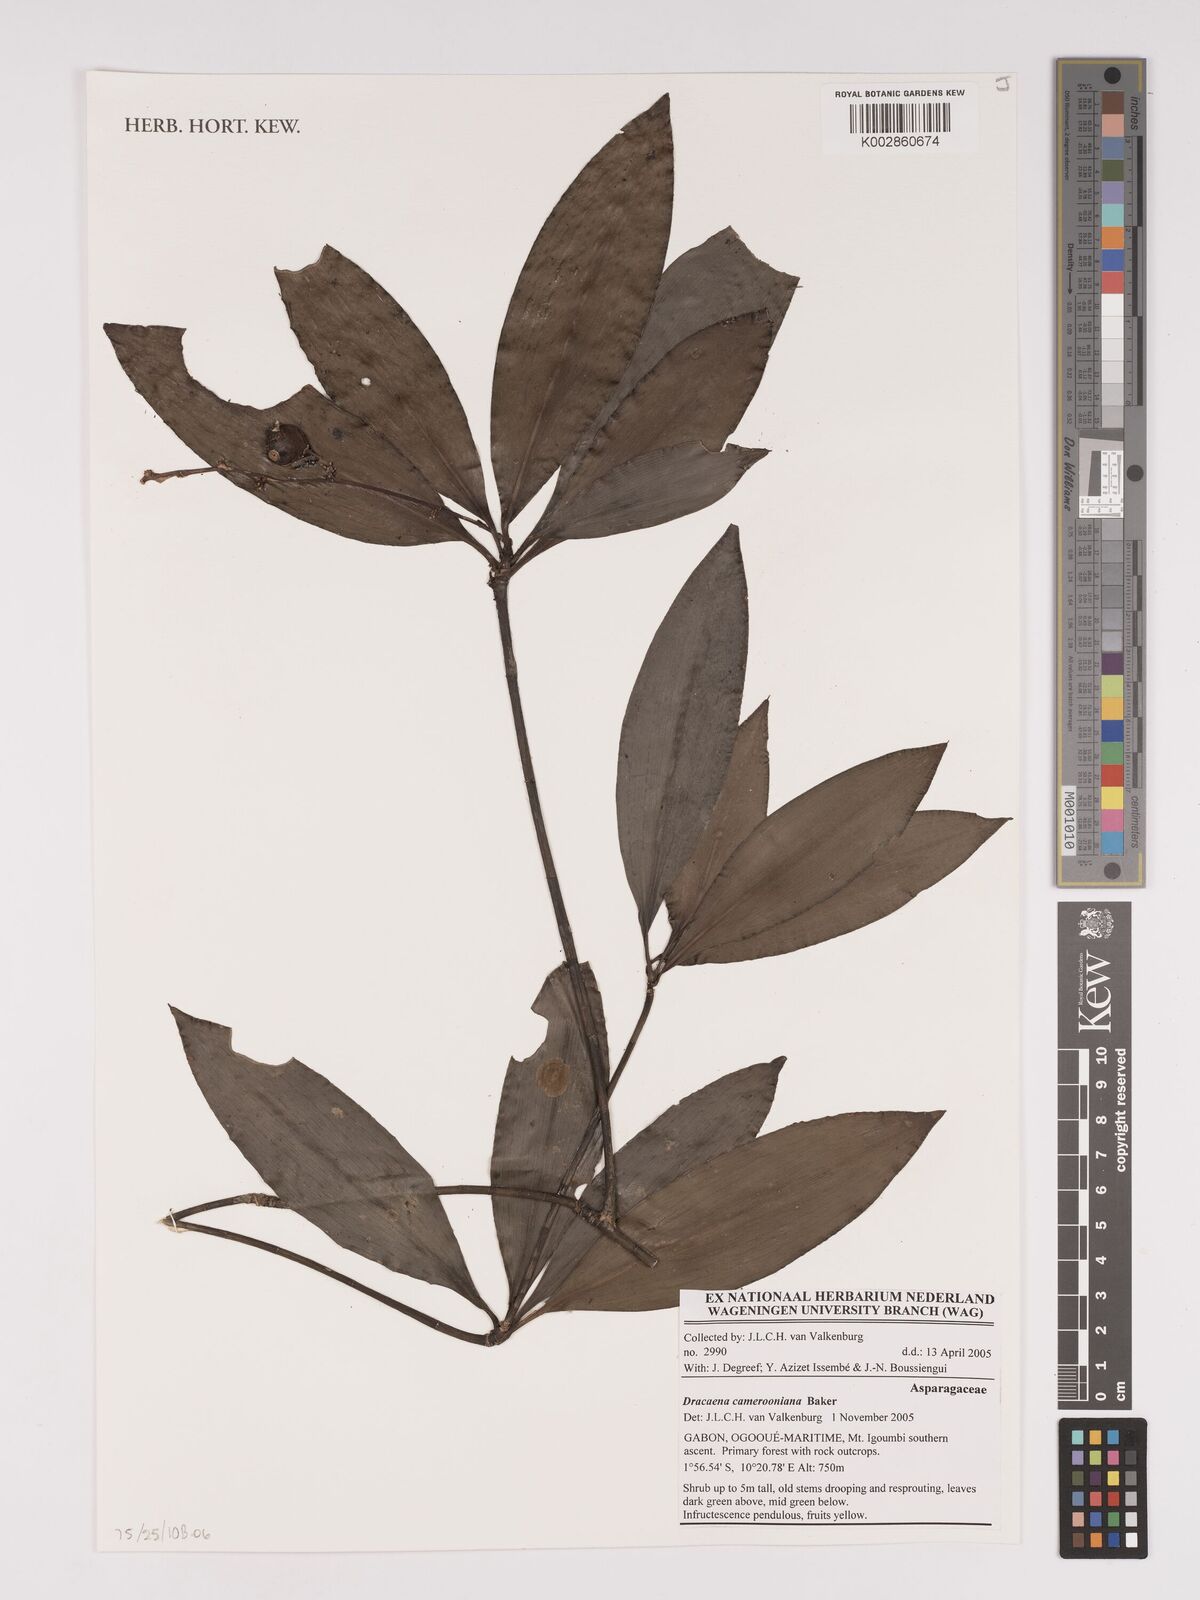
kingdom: Plantae
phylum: Tracheophyta
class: Liliopsida
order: Asparagales
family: Asparagaceae
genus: Dracaena
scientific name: Dracaena camerooniana
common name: Dragon tree
